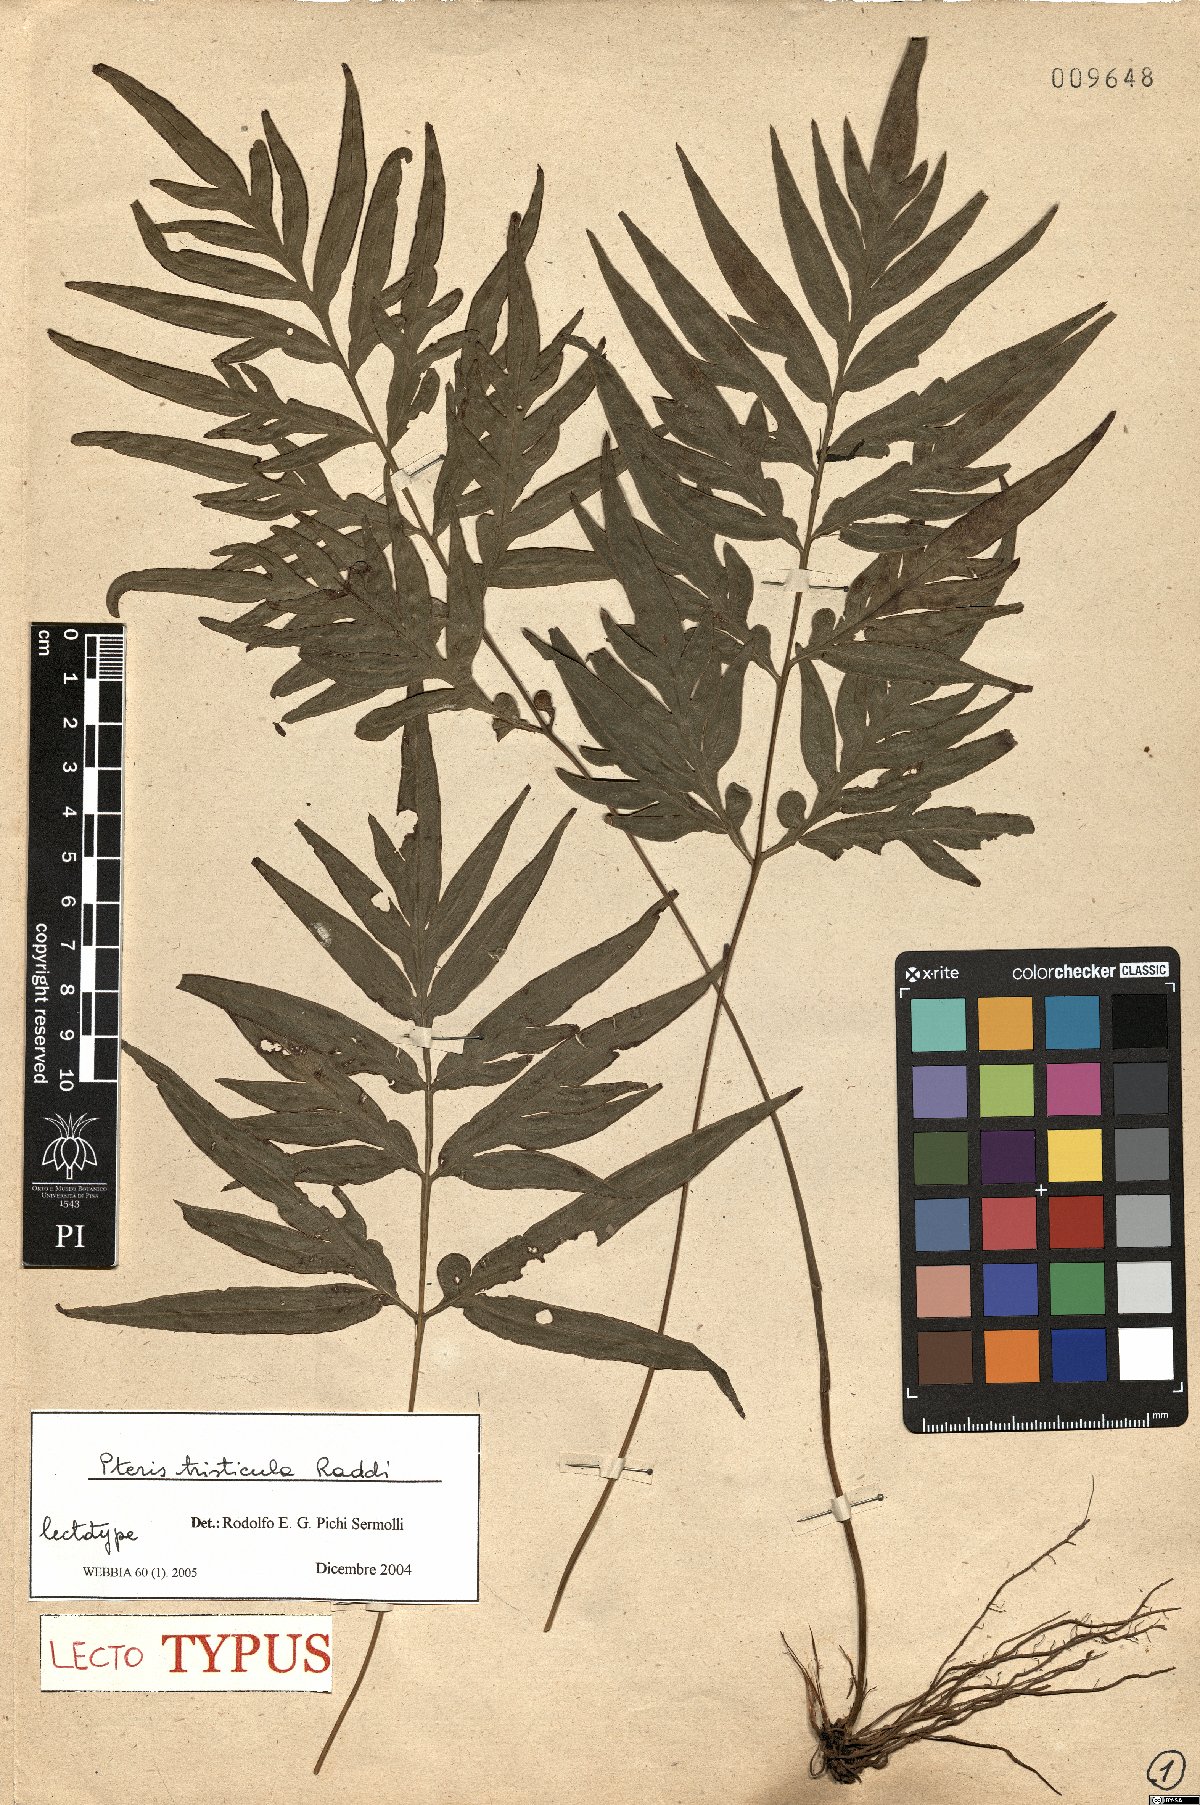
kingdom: Plantae
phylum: Tracheophyta
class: Polypodiopsida
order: Polypodiales
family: Pteridaceae
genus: Pteris
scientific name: Pteris denticulata
